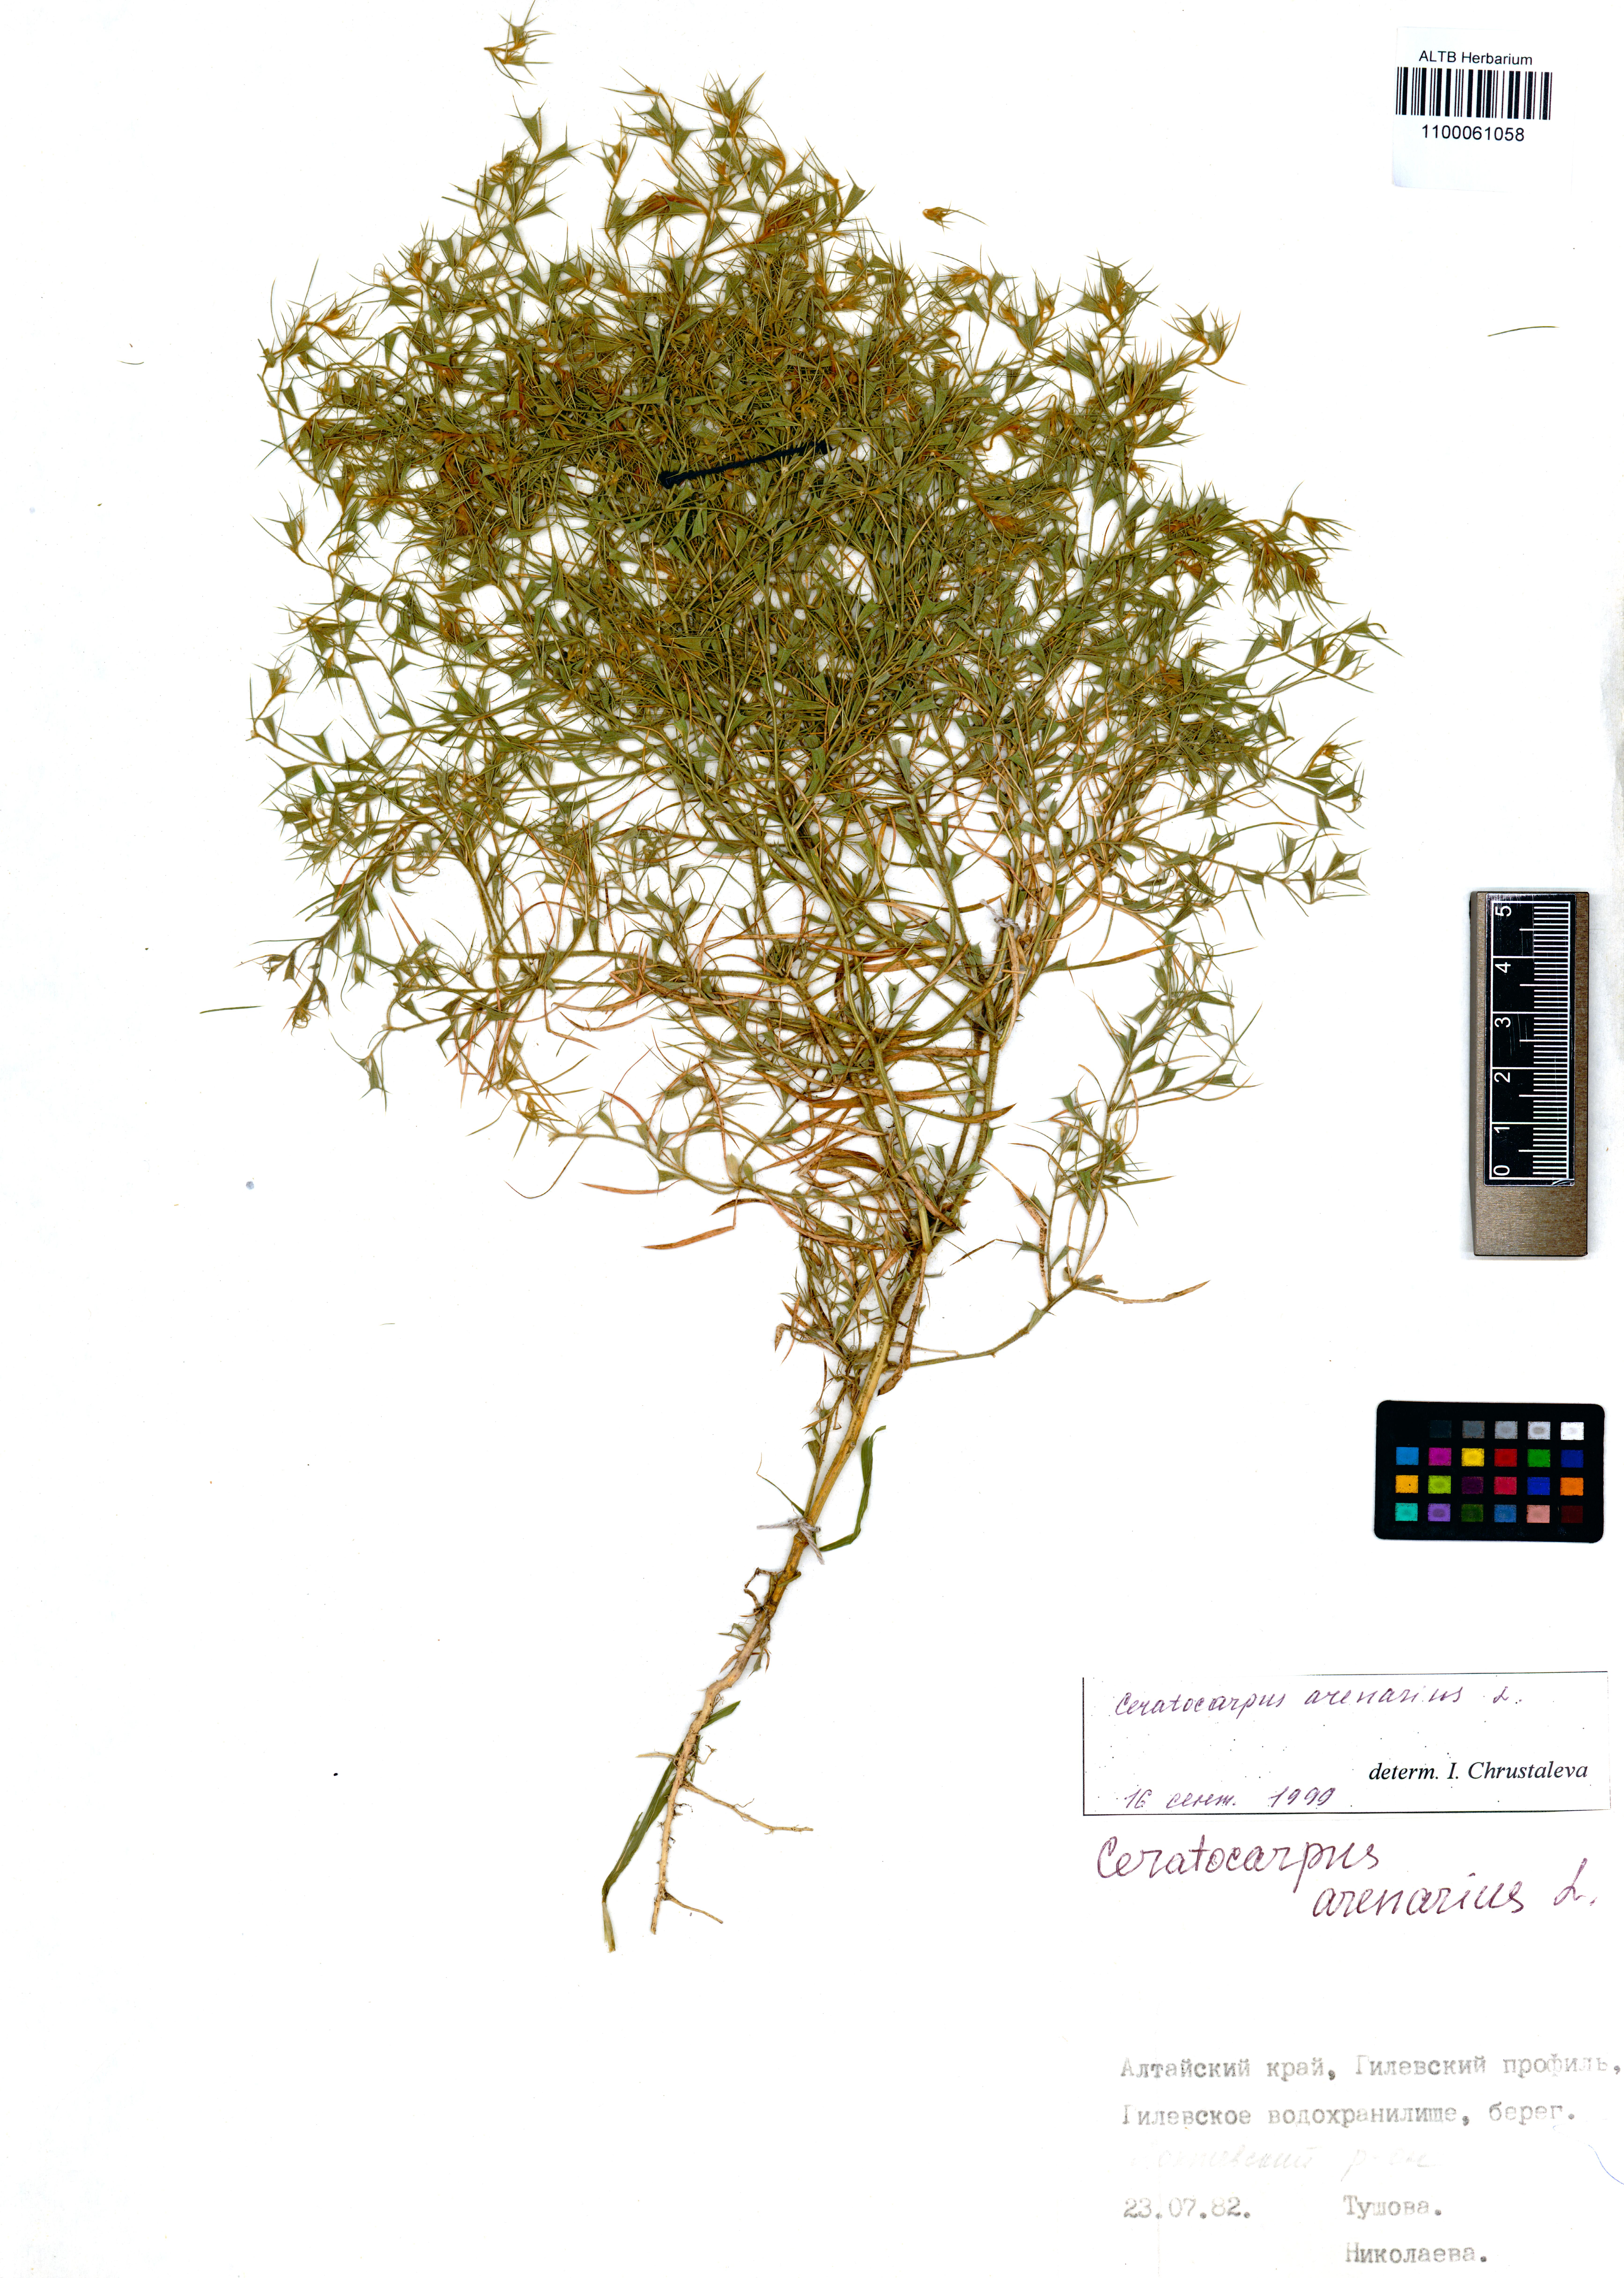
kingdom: Plantae
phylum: Tracheophyta
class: Magnoliopsida
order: Caryophyllales
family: Amaranthaceae
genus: Ceratocarpus
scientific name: Ceratocarpus arenarius
